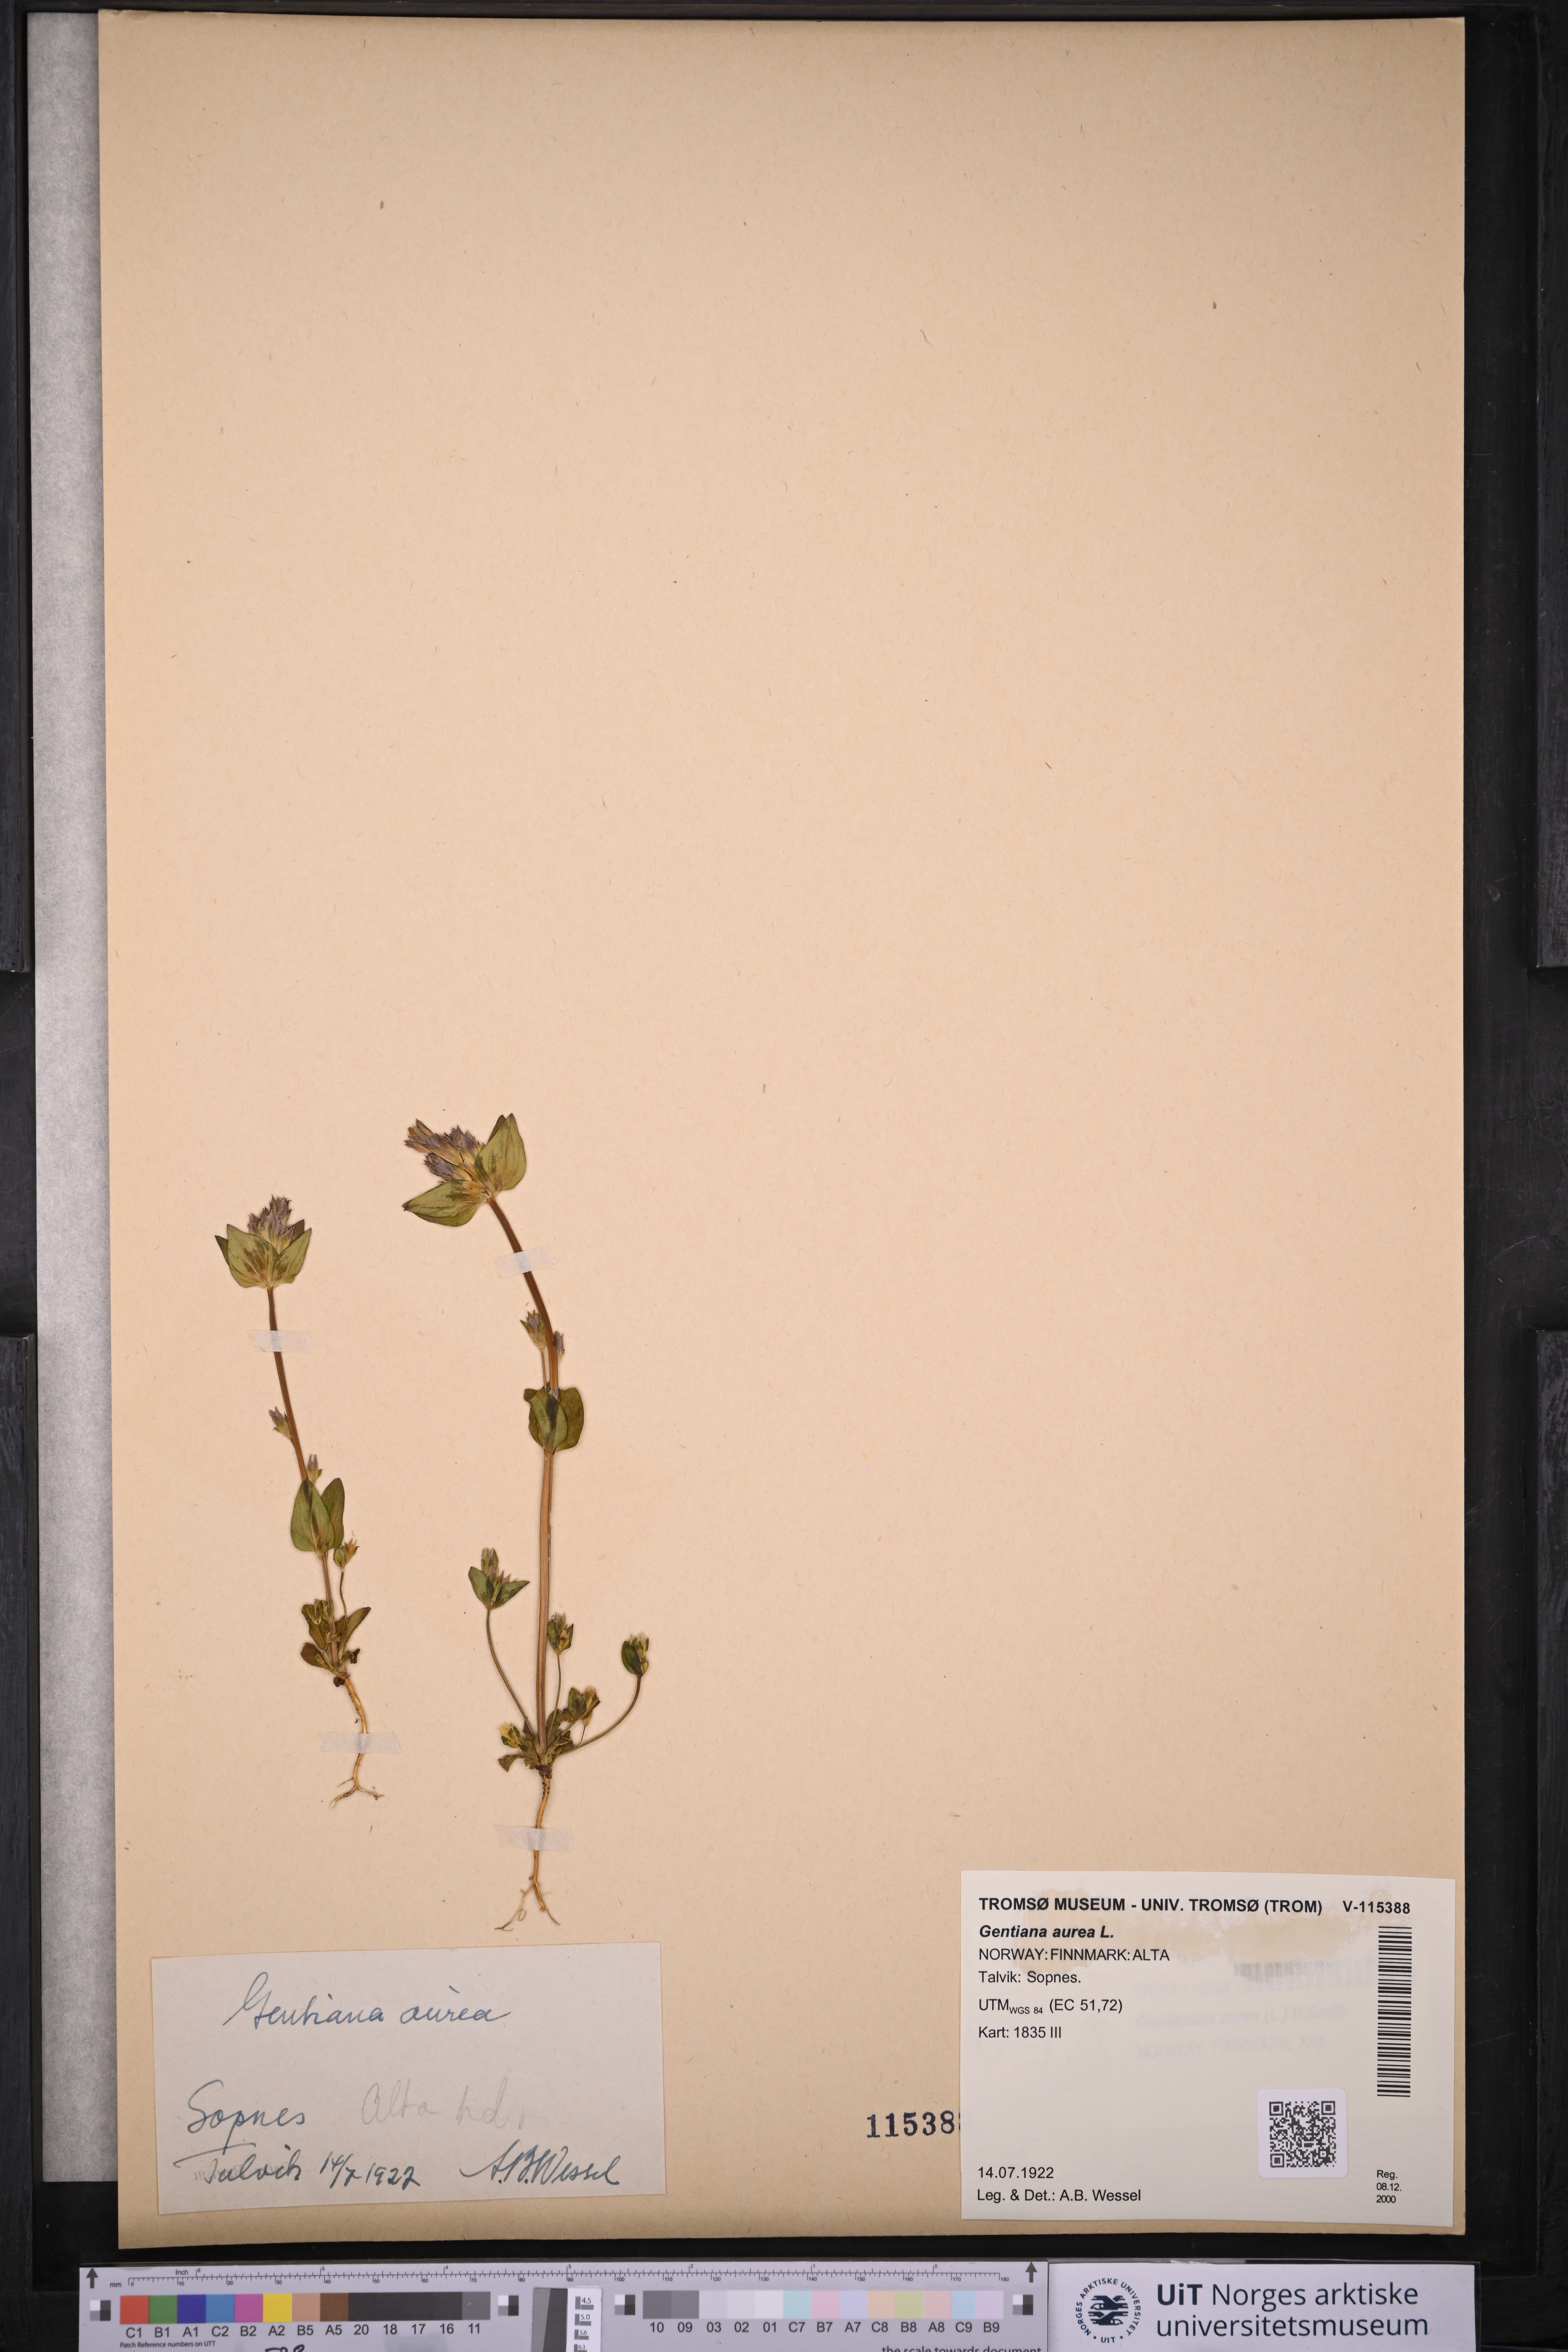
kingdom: Plantae
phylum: Tracheophyta
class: Magnoliopsida
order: Gentianales
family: Gentianaceae
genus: Gentianella
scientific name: Gentianella aurea
